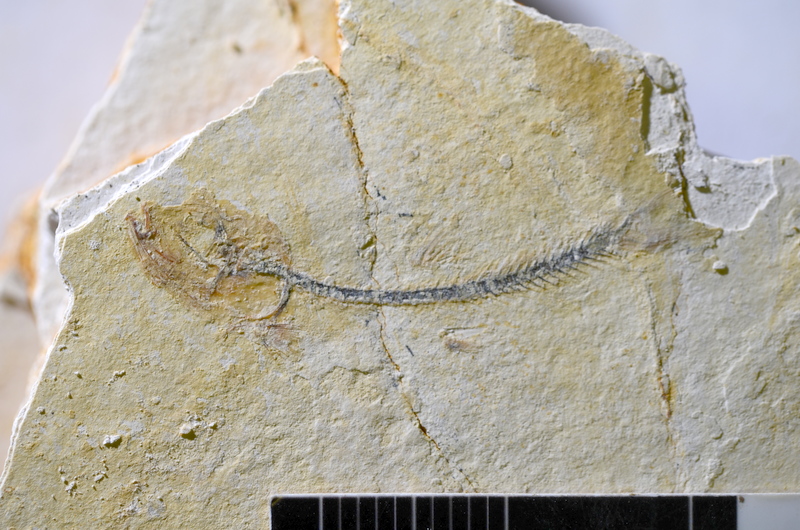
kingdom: Animalia
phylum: Chordata
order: Salmoniformes
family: Orthogonikleithridae
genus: Orthogonikleithrus
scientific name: Orthogonikleithrus hoelli
